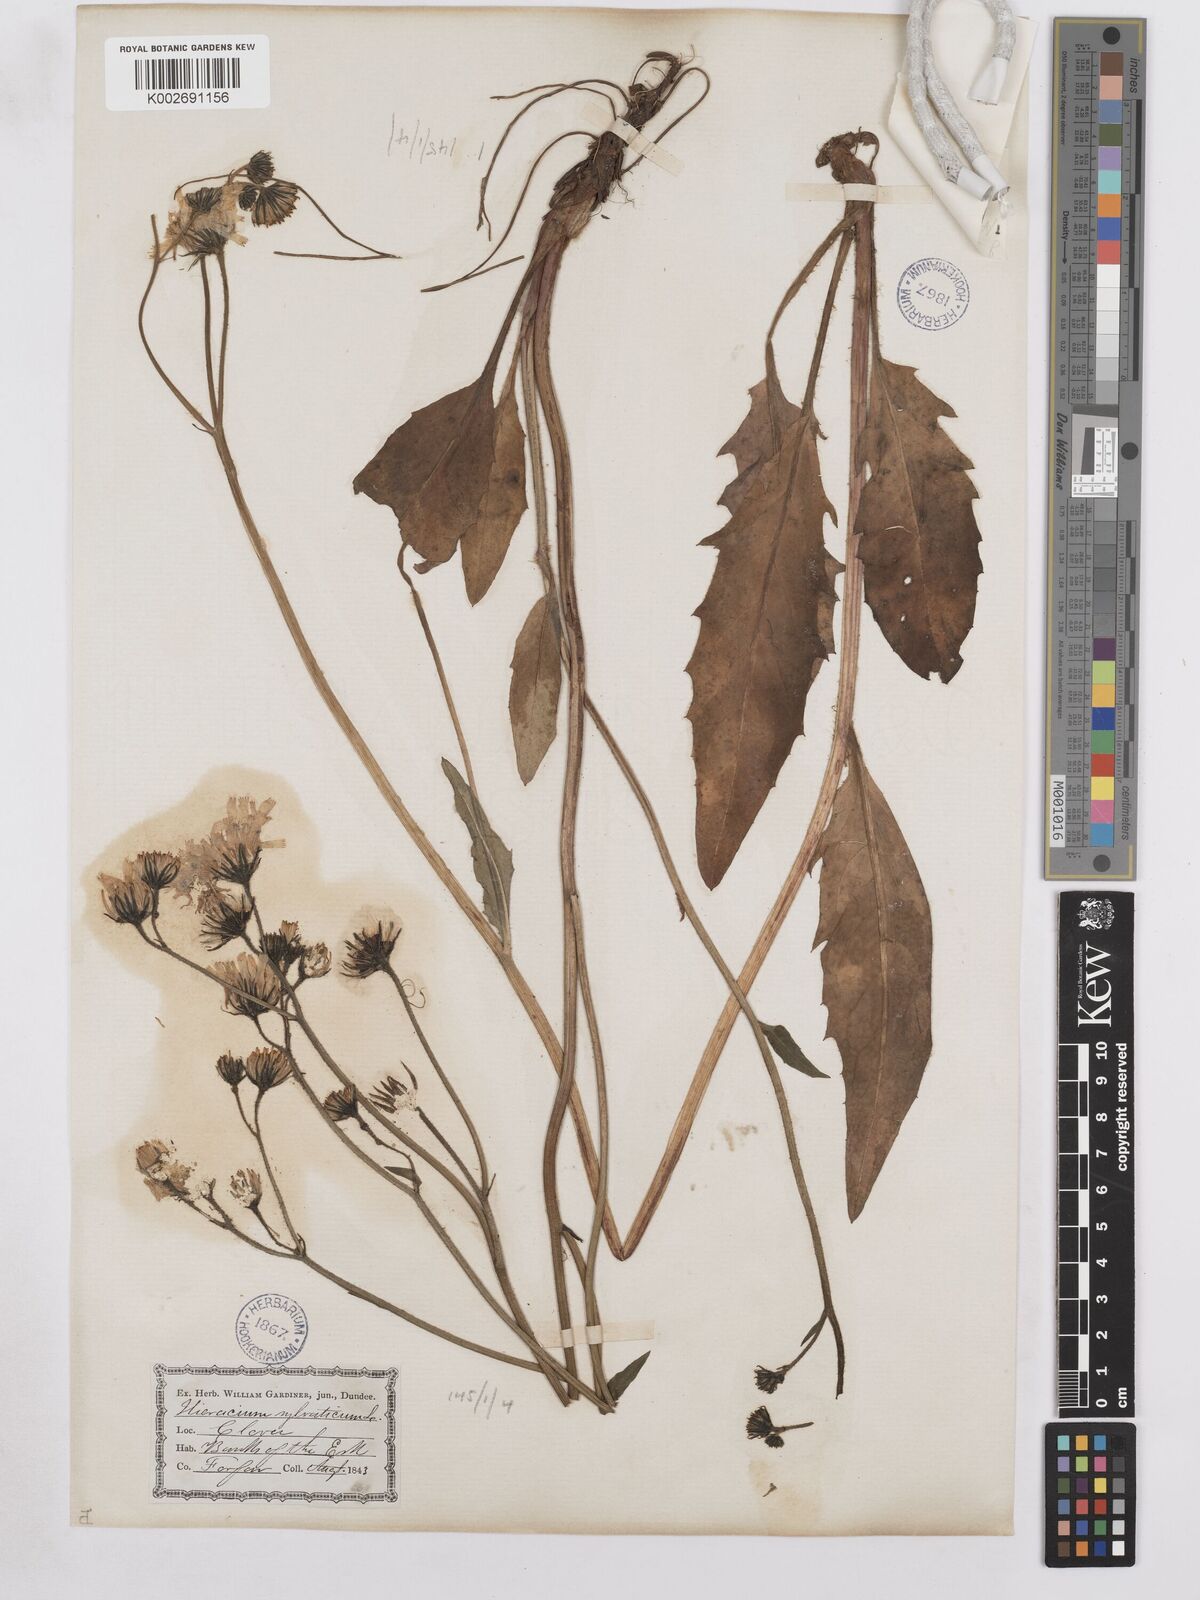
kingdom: Plantae
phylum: Tracheophyta
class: Magnoliopsida
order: Asterales
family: Asteraceae
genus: Hieracium
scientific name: Hieracium lachenalii
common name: Common hawkweed
